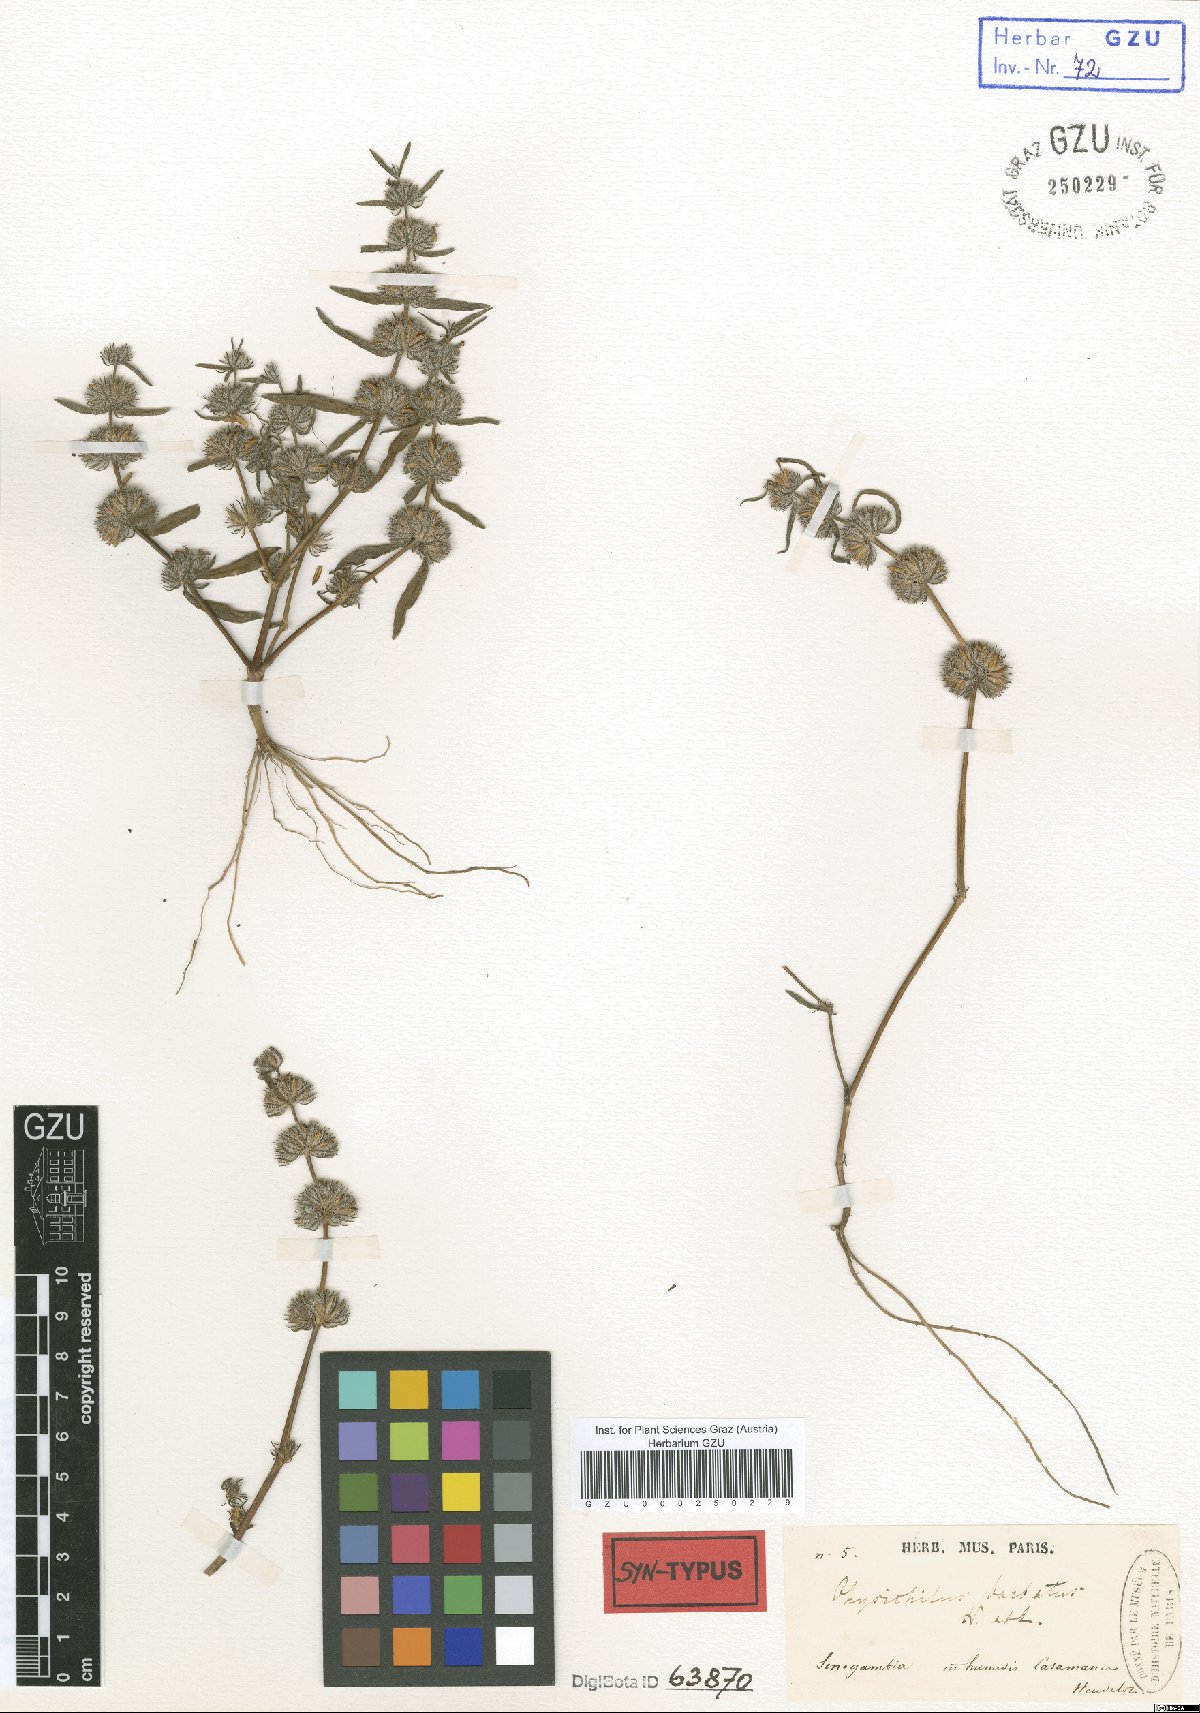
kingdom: Plantae
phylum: Tracheophyta
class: Magnoliopsida
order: Lamiales
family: Acanthaceae
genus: Hygrophila
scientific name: Hygrophila barbata
